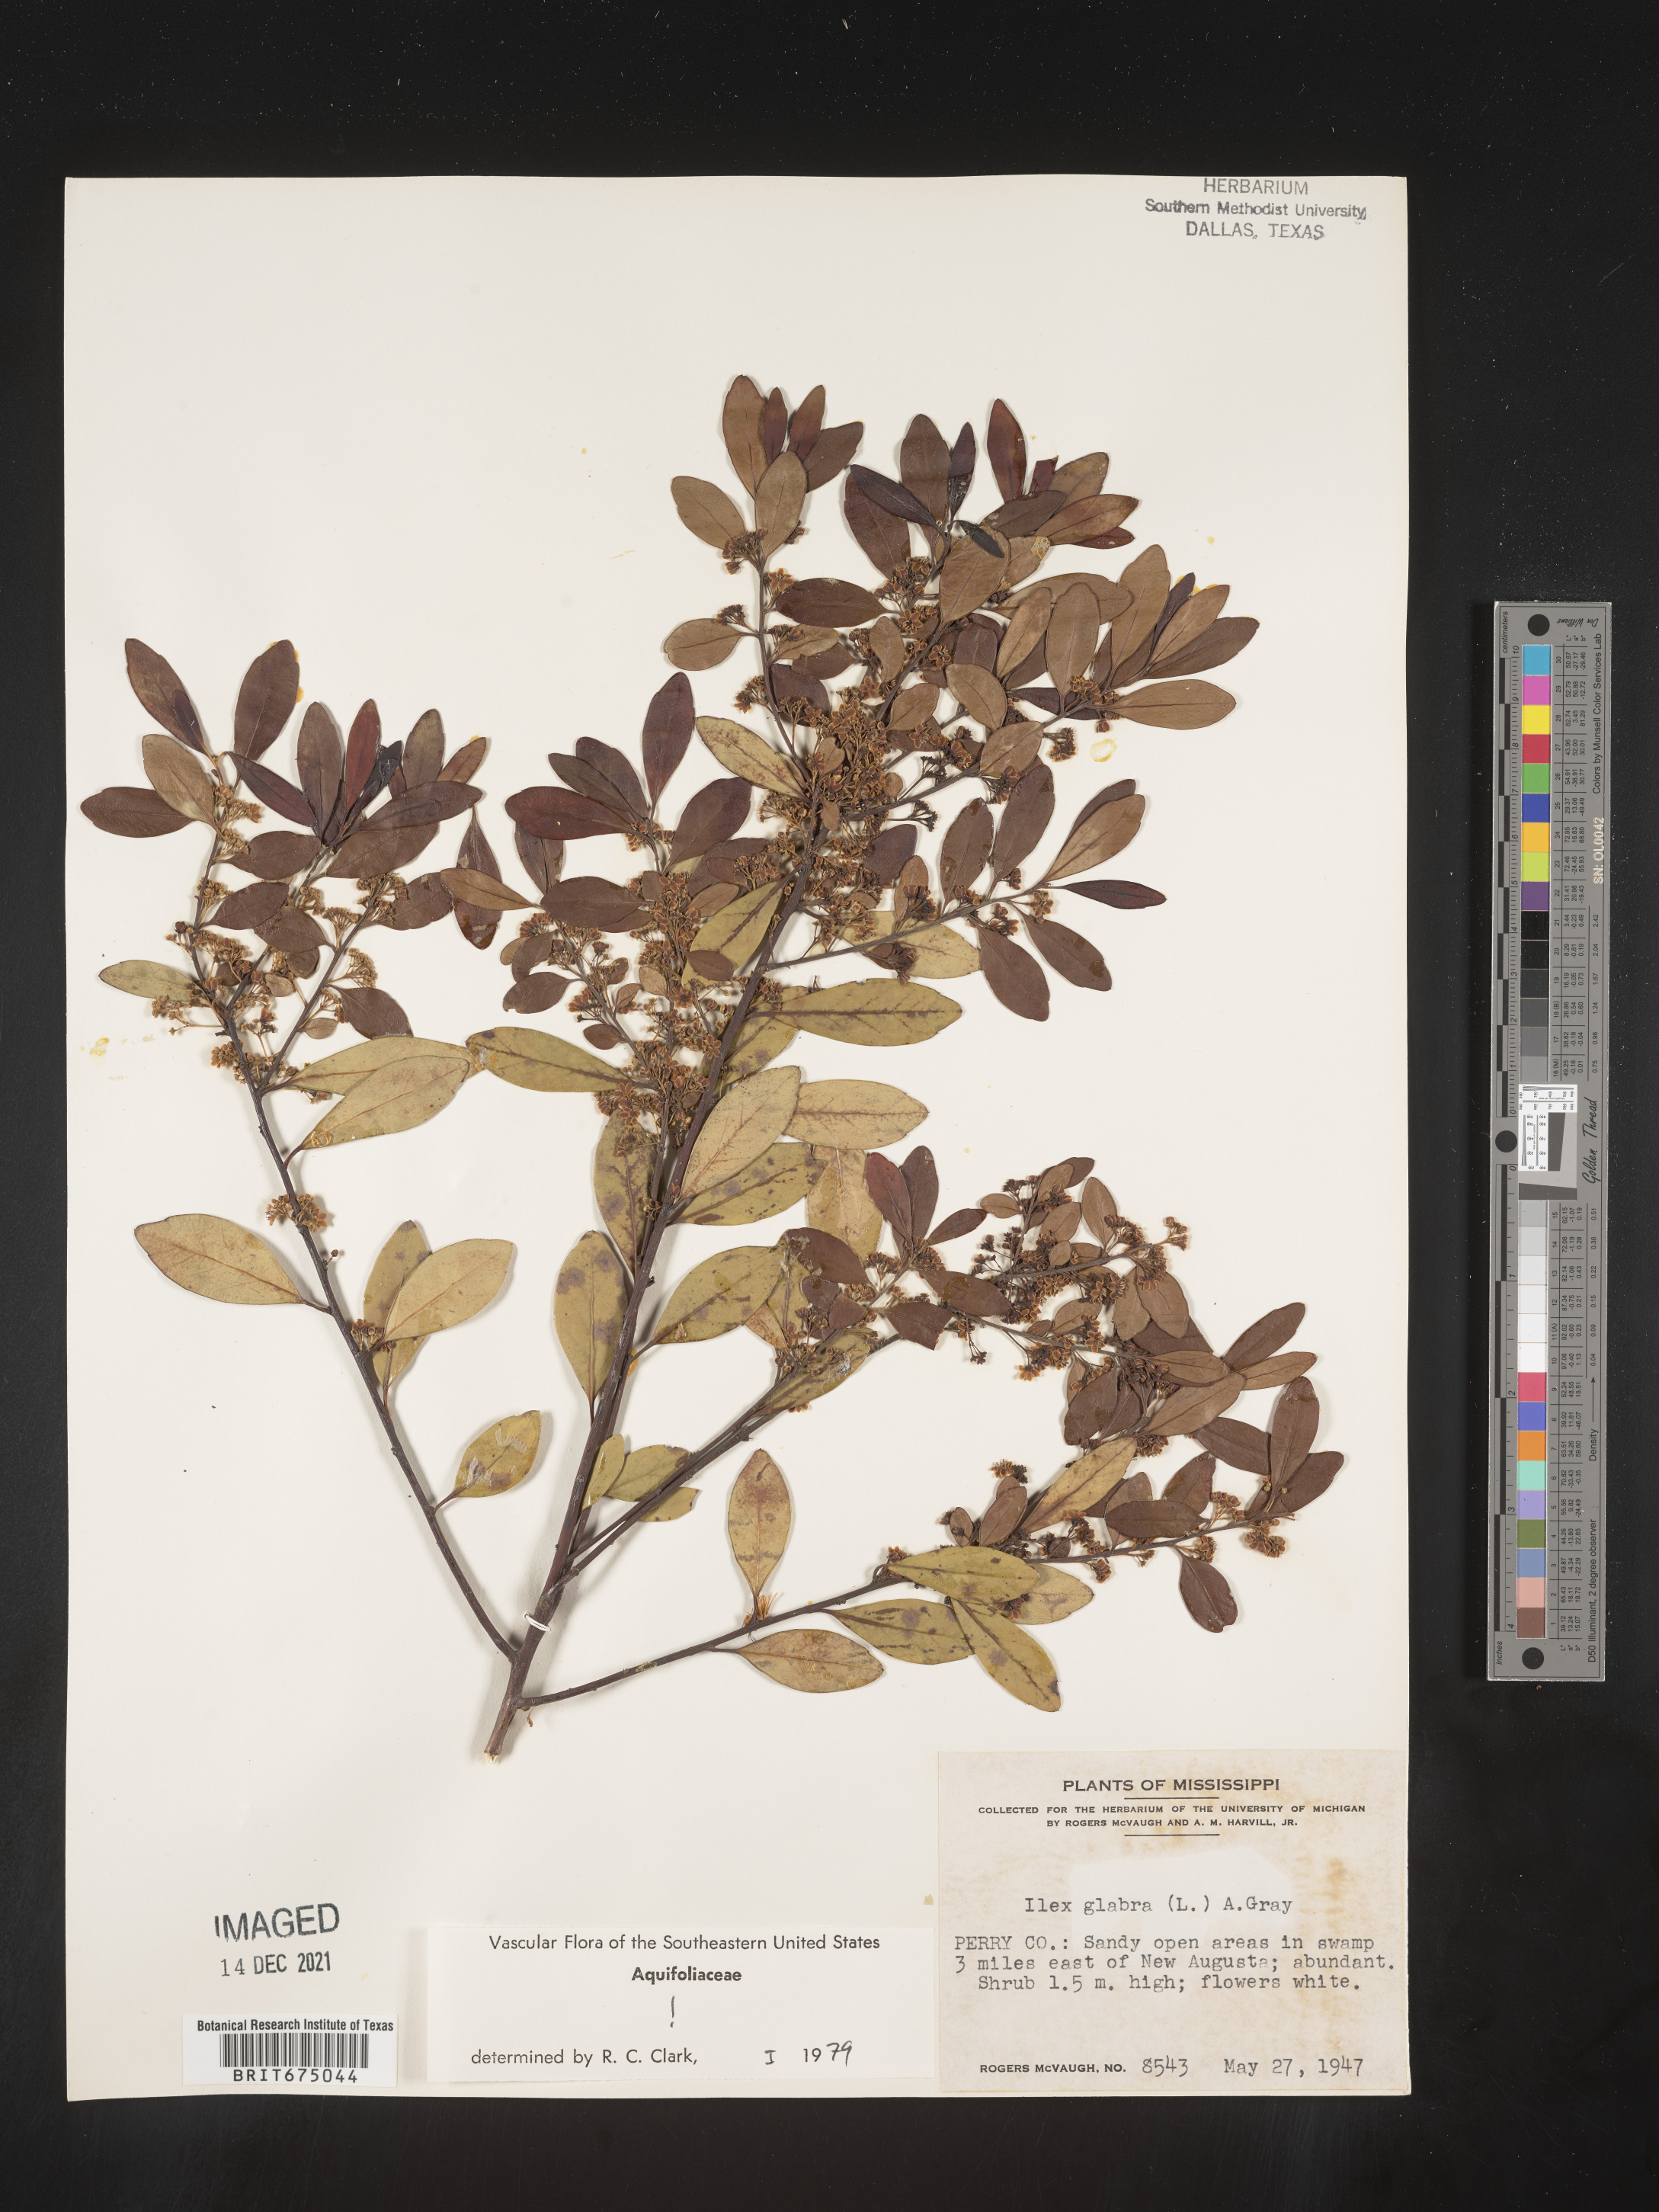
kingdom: Plantae
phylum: Tracheophyta
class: Magnoliopsida
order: Aquifoliales
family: Aquifoliaceae
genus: Ilex
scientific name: Ilex glabra
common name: Bitter gallberry
